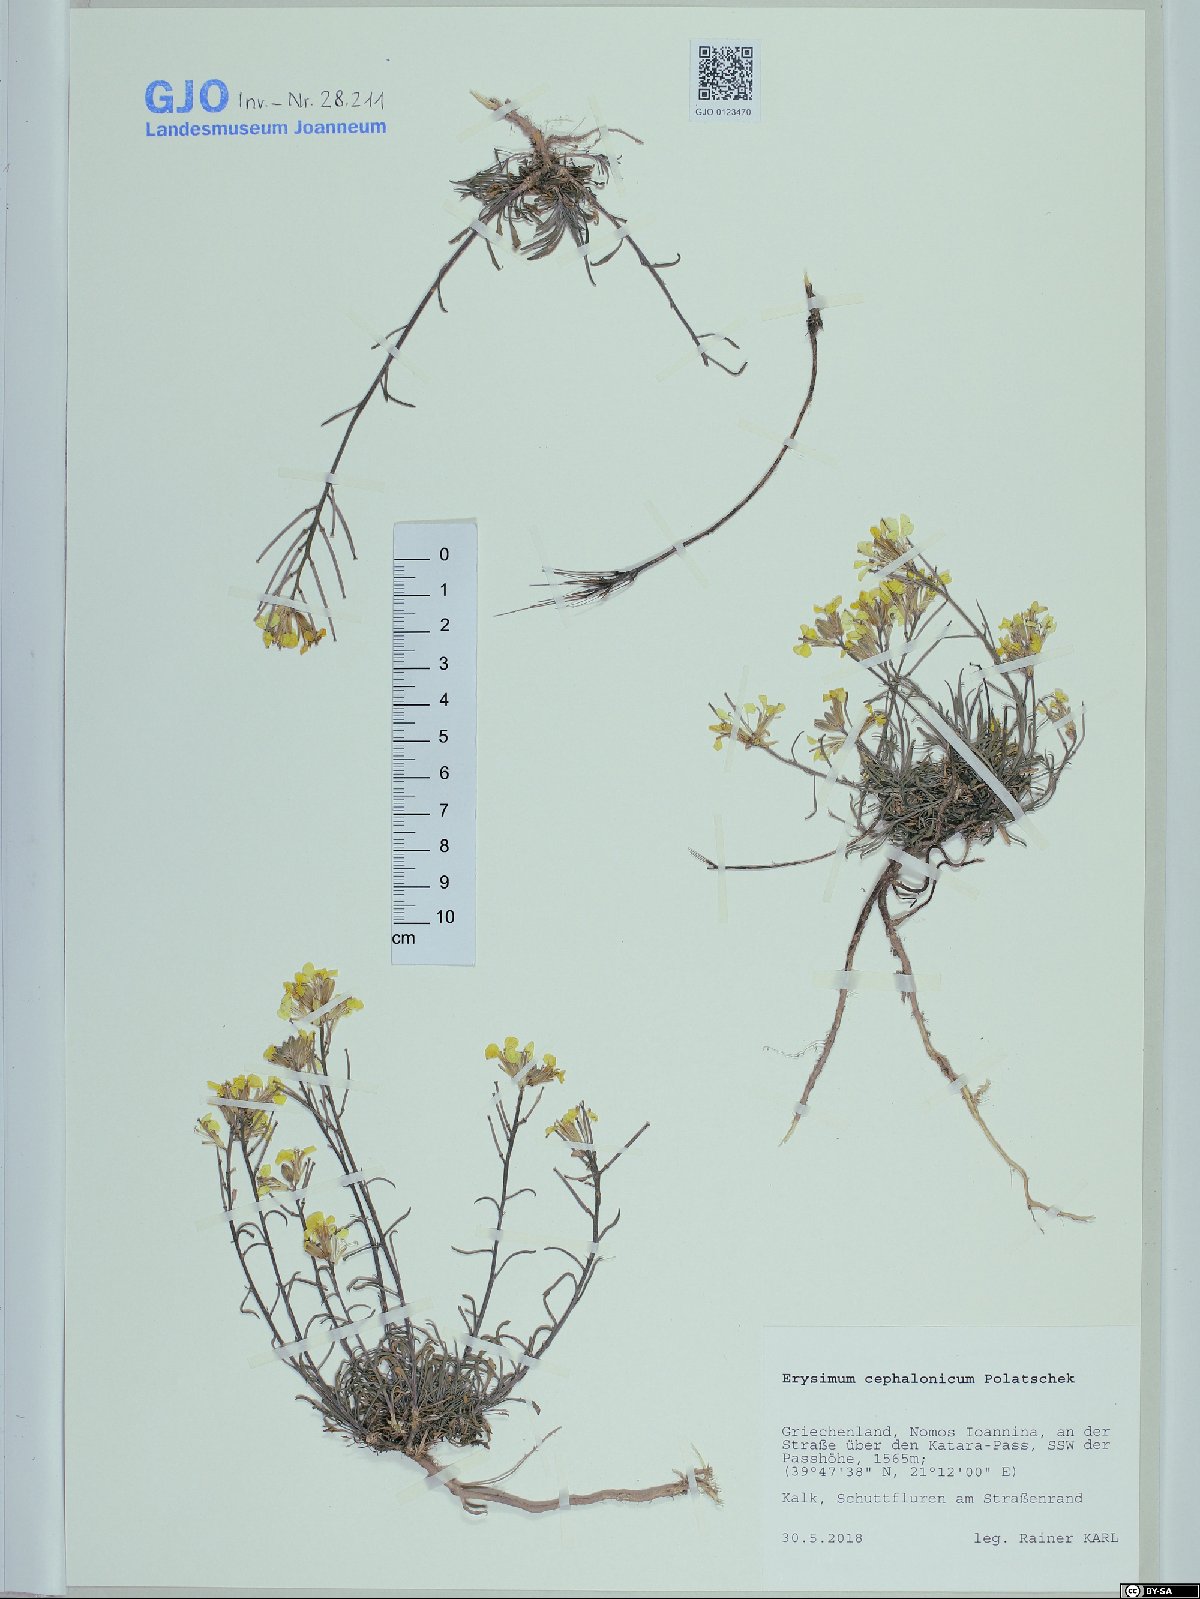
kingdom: Plantae
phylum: Tracheophyta
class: Magnoliopsida
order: Brassicales
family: Brassicaceae
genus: Erysimum
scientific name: Erysimum pusillum
